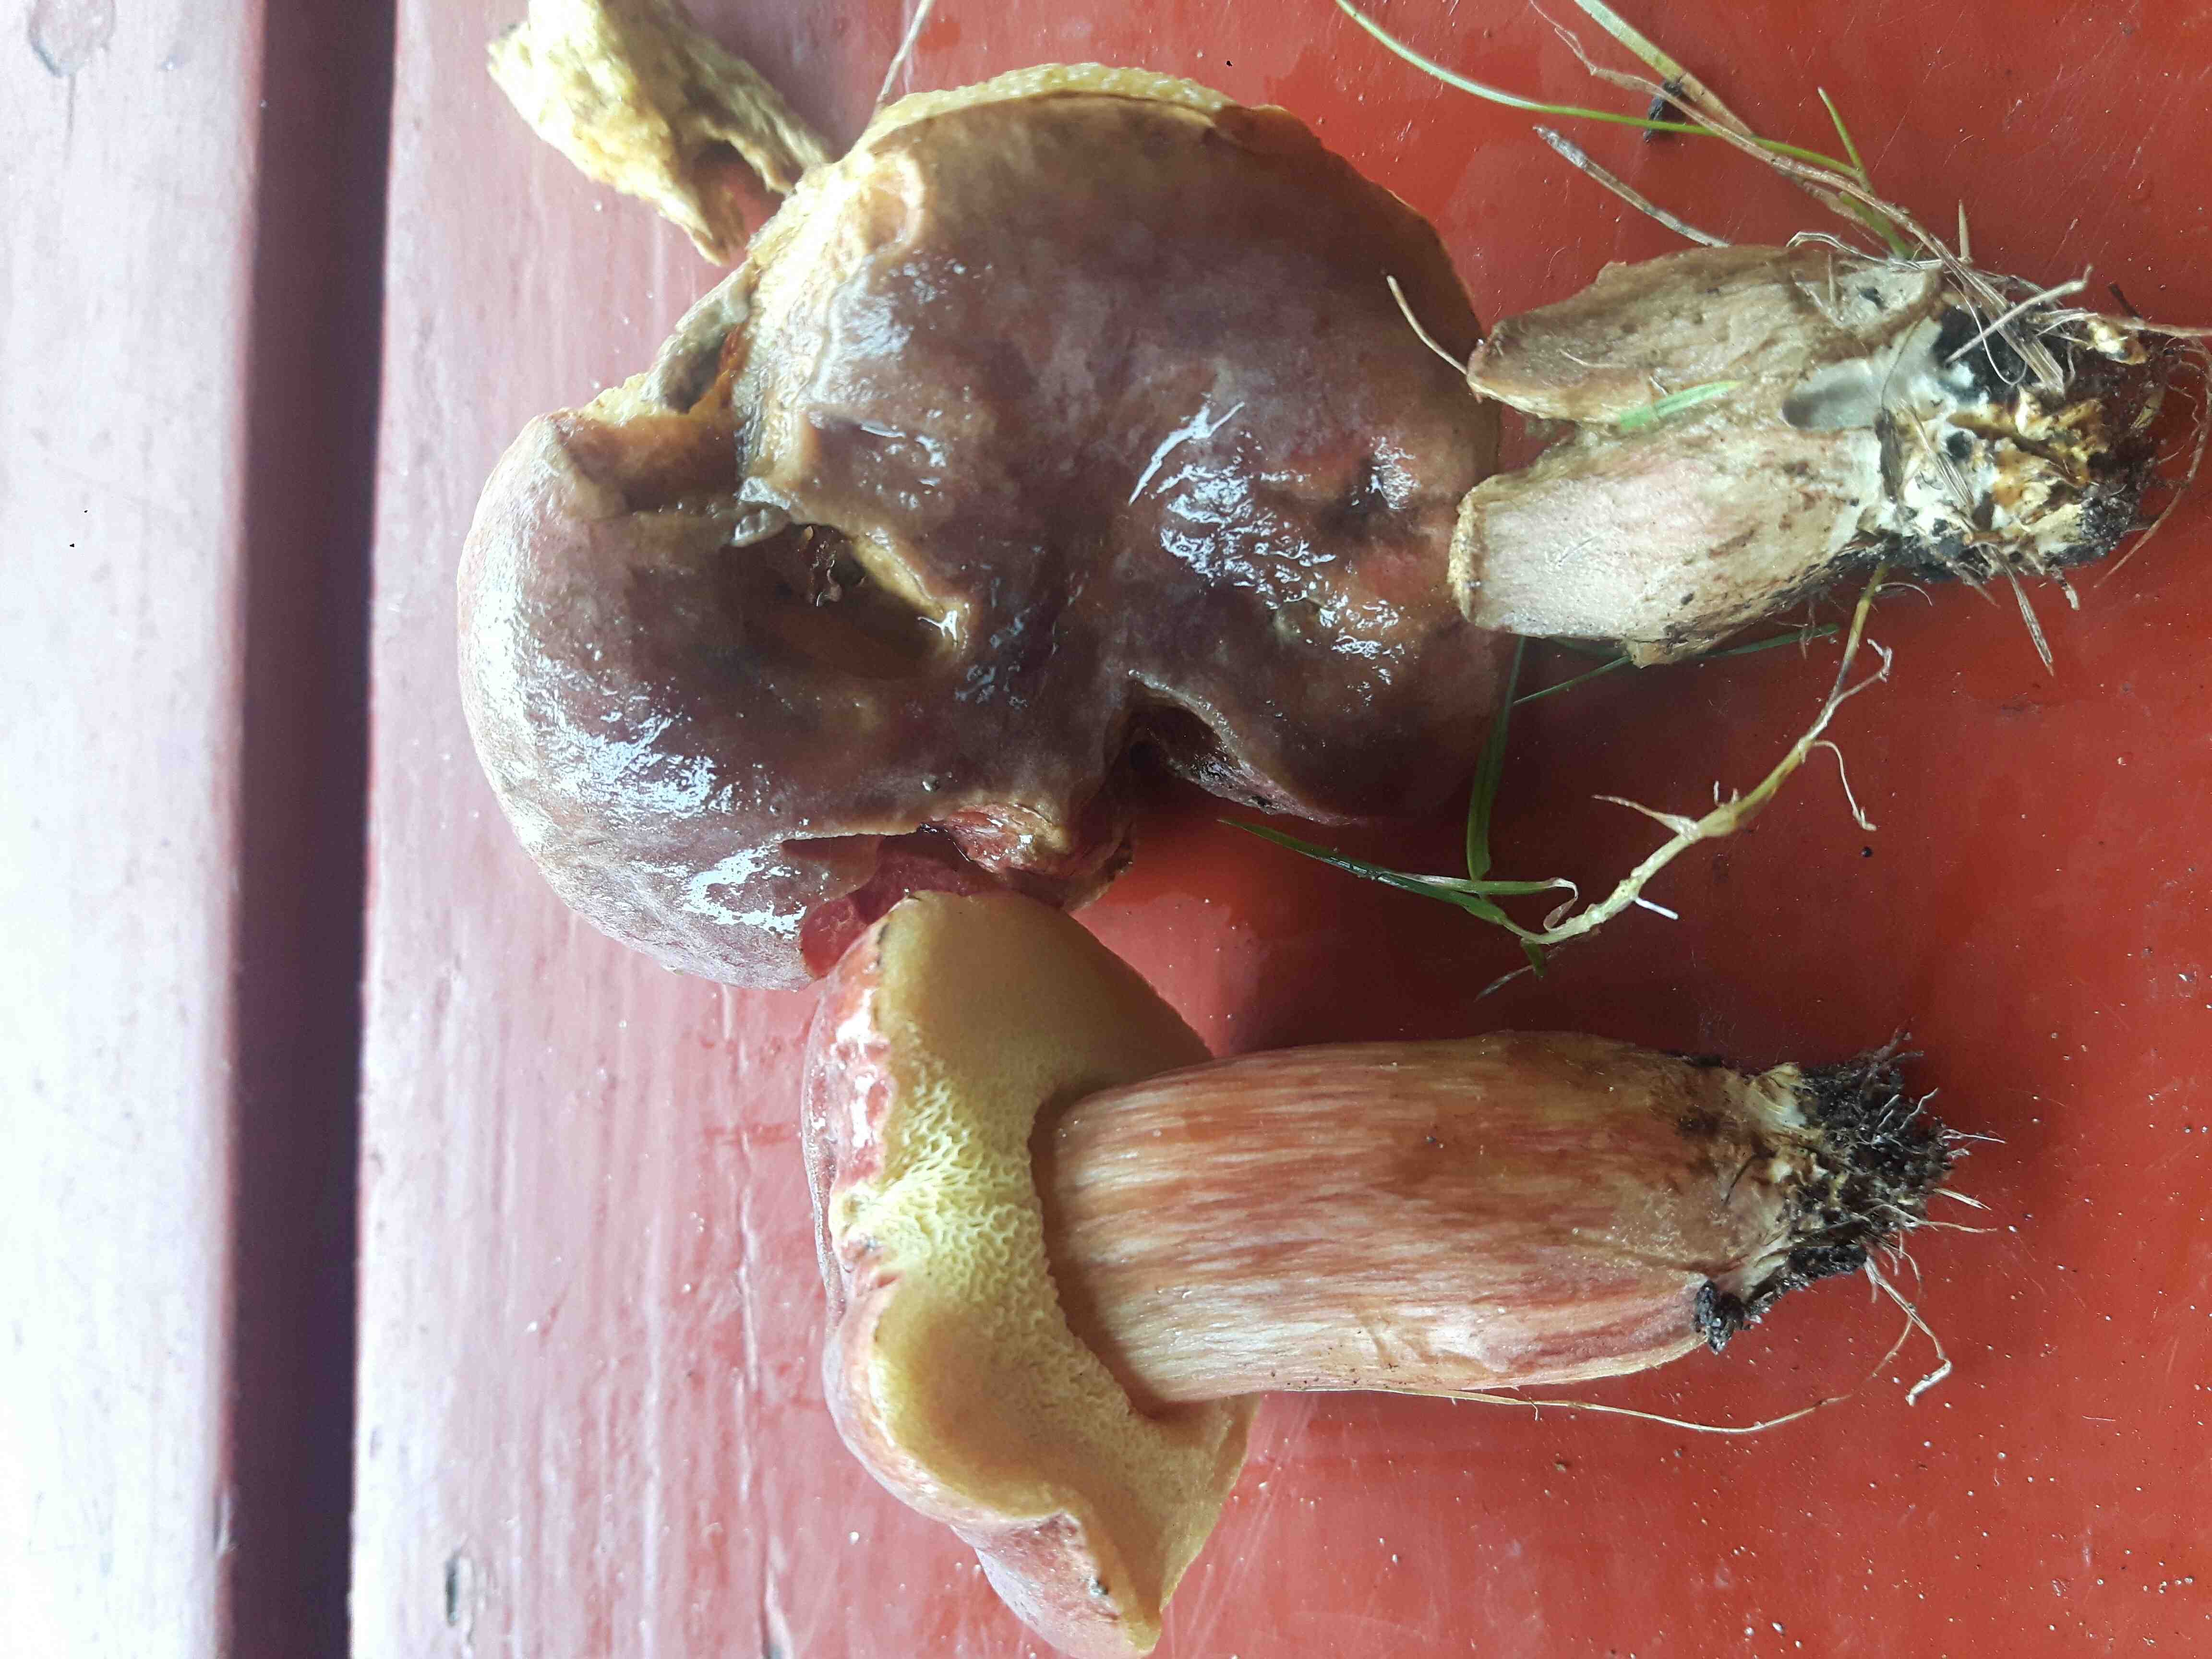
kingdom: Fungi
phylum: Basidiomycota
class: Agaricomycetes
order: Boletales
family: Boletaceae
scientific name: Boletaceae
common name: rørhatfamilien
